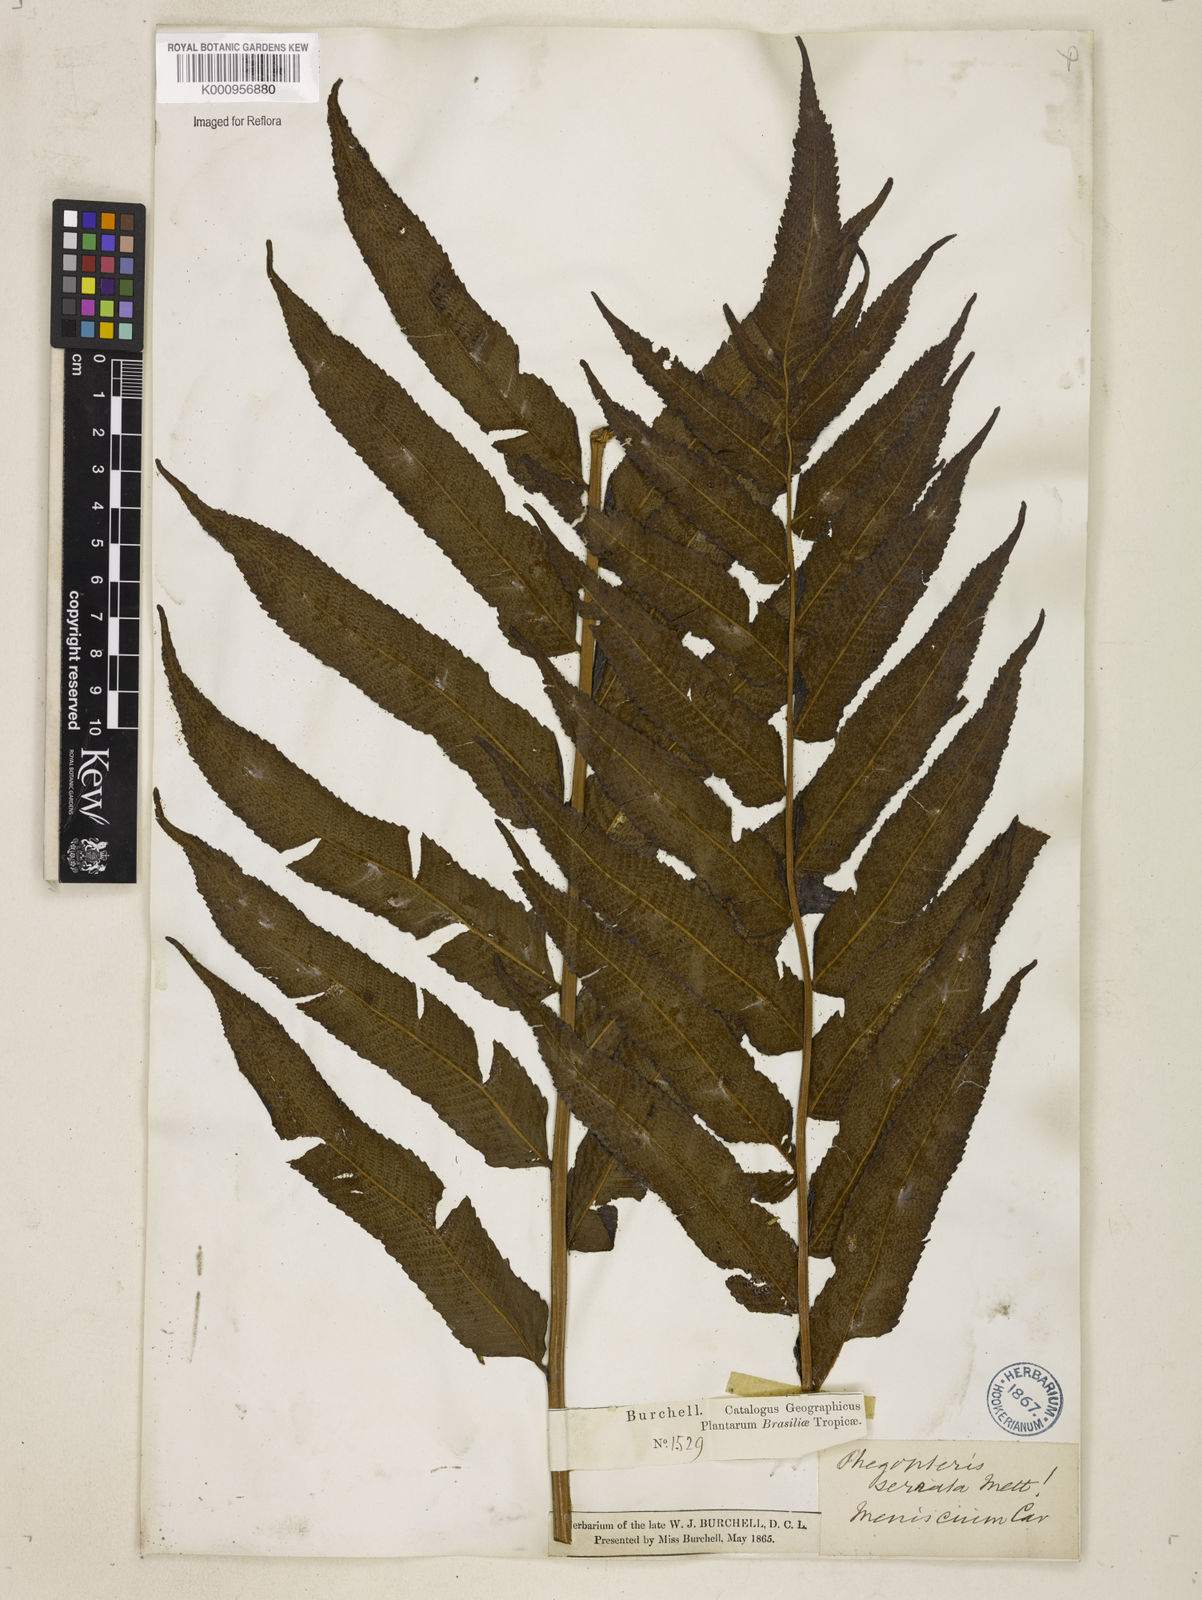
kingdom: Plantae
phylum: Tracheophyta
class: Polypodiopsida
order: Polypodiales
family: Thelypteridaceae
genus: Meniscium
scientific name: Meniscium serratum
